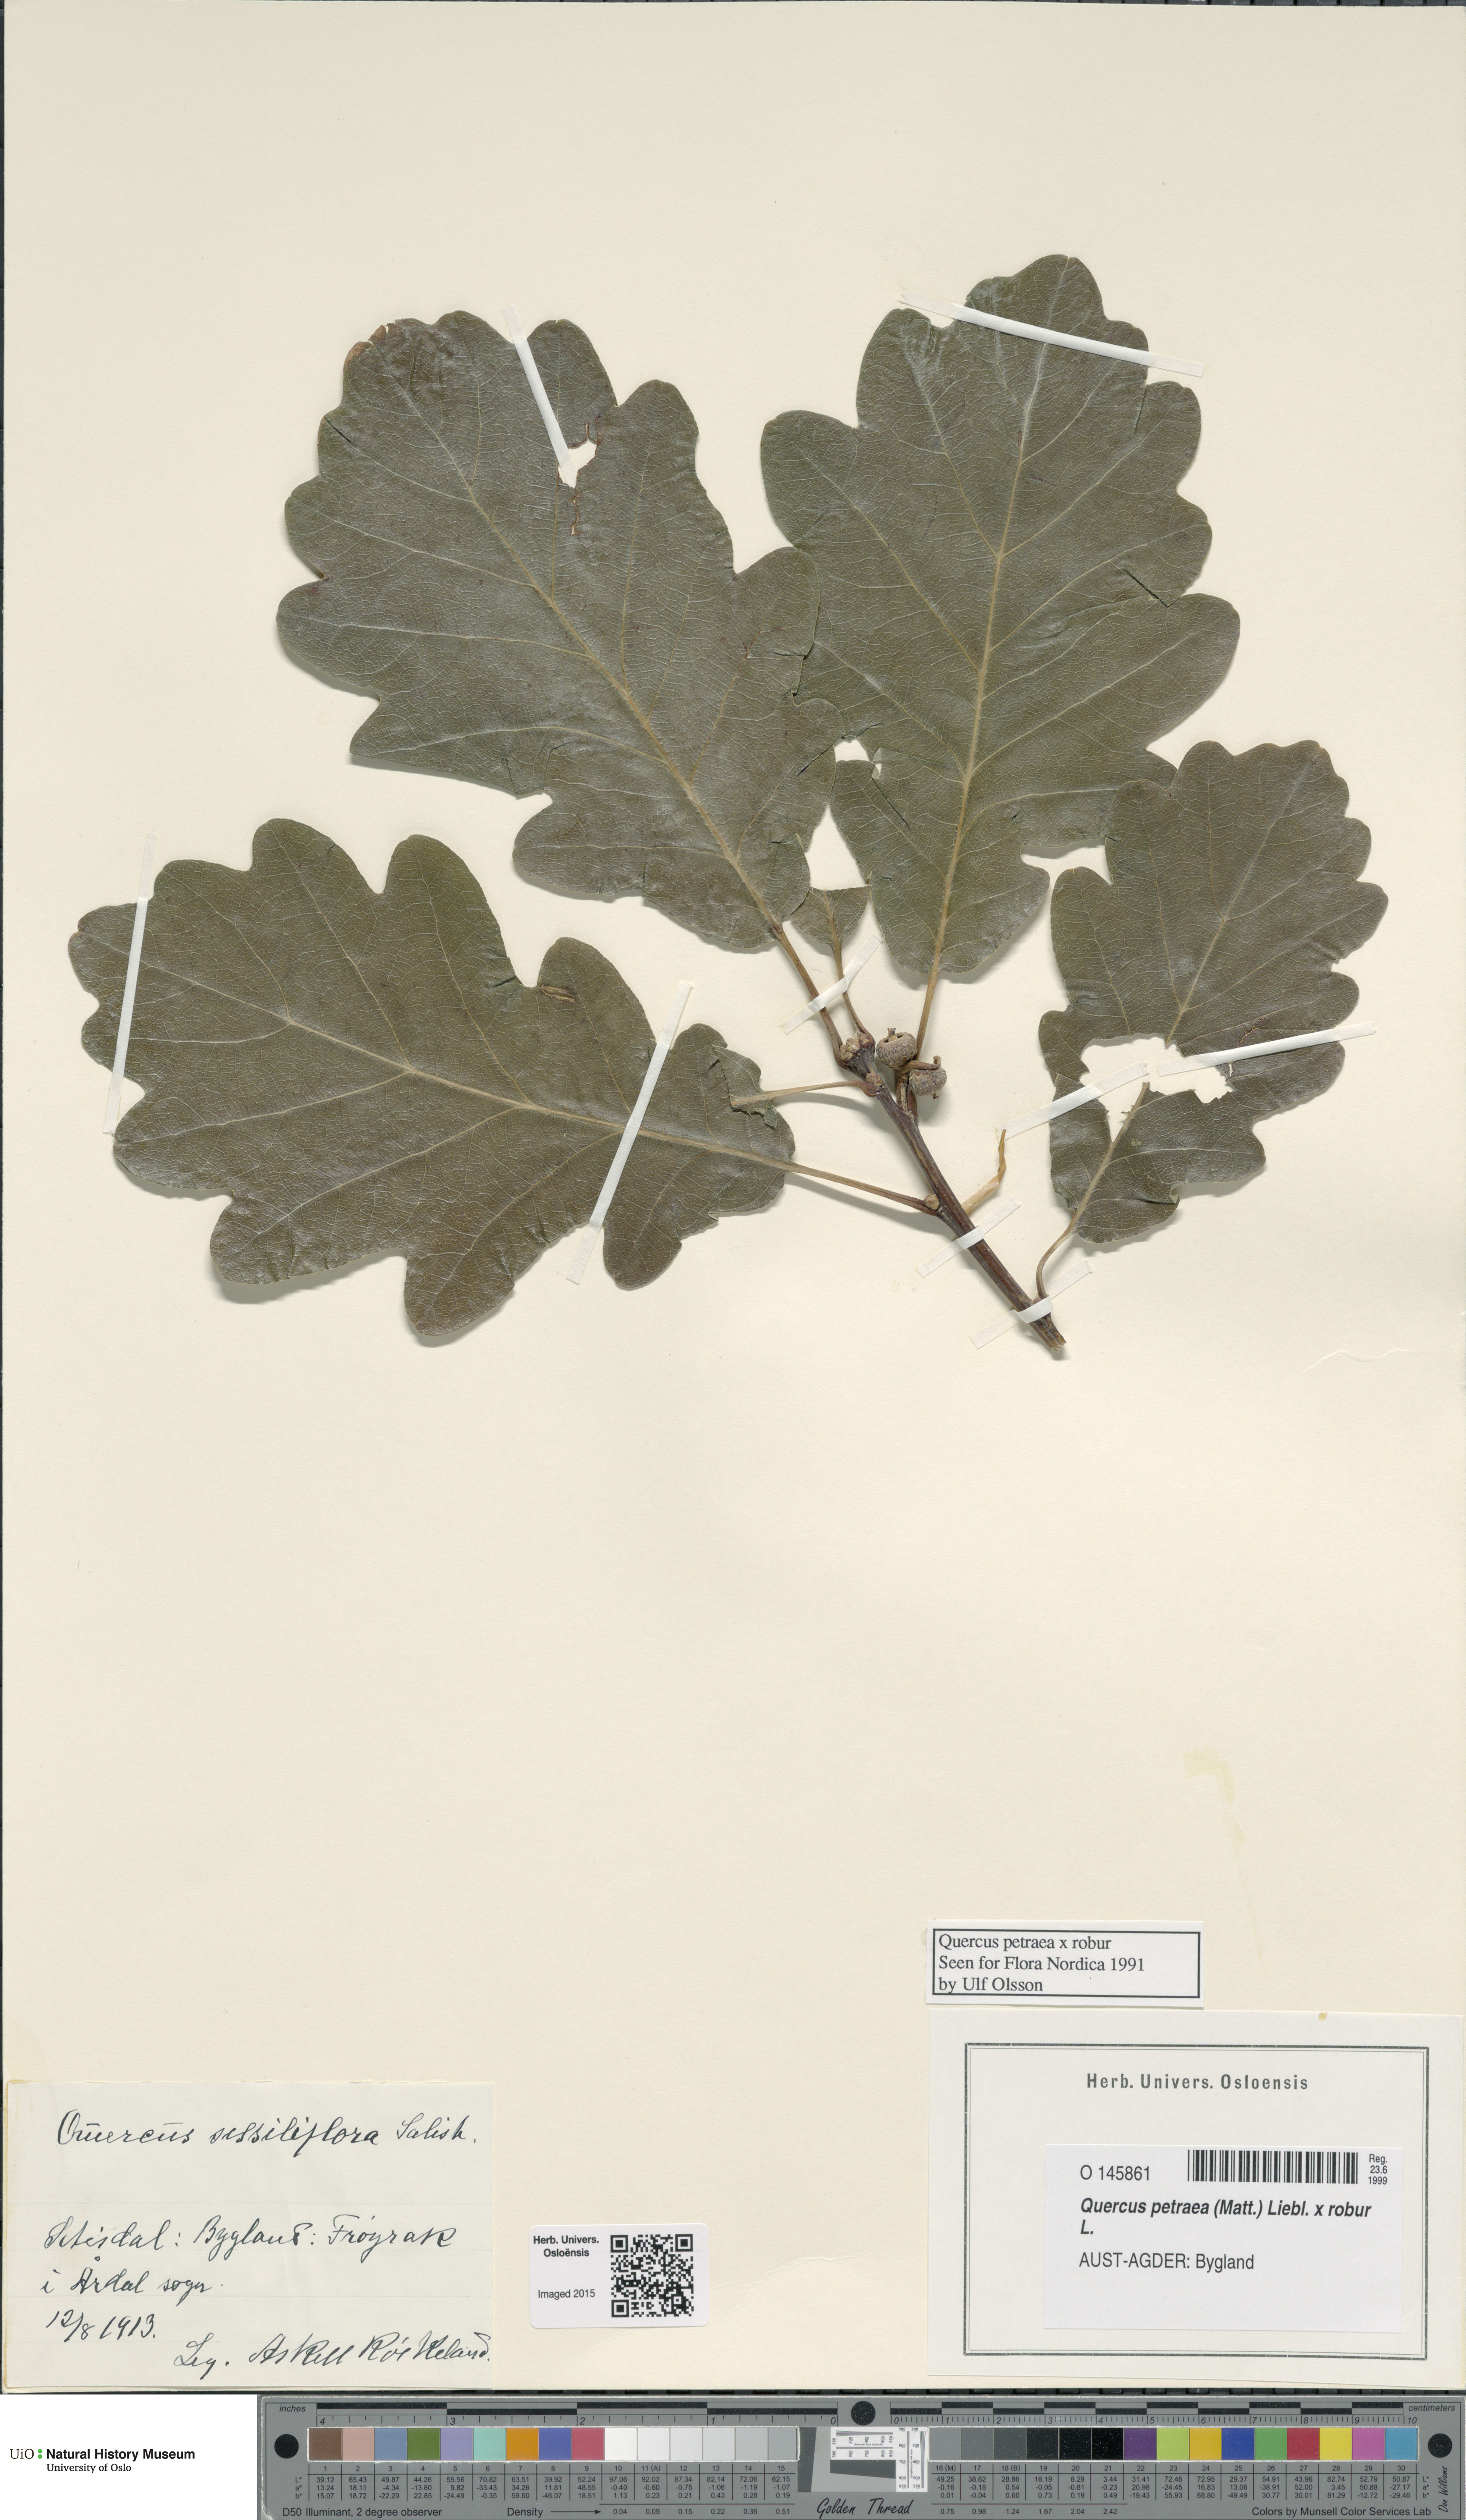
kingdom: Plantae
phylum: Tracheophyta
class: Magnoliopsida
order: Fagales
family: Fagaceae
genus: Quercus
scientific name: Quercus
